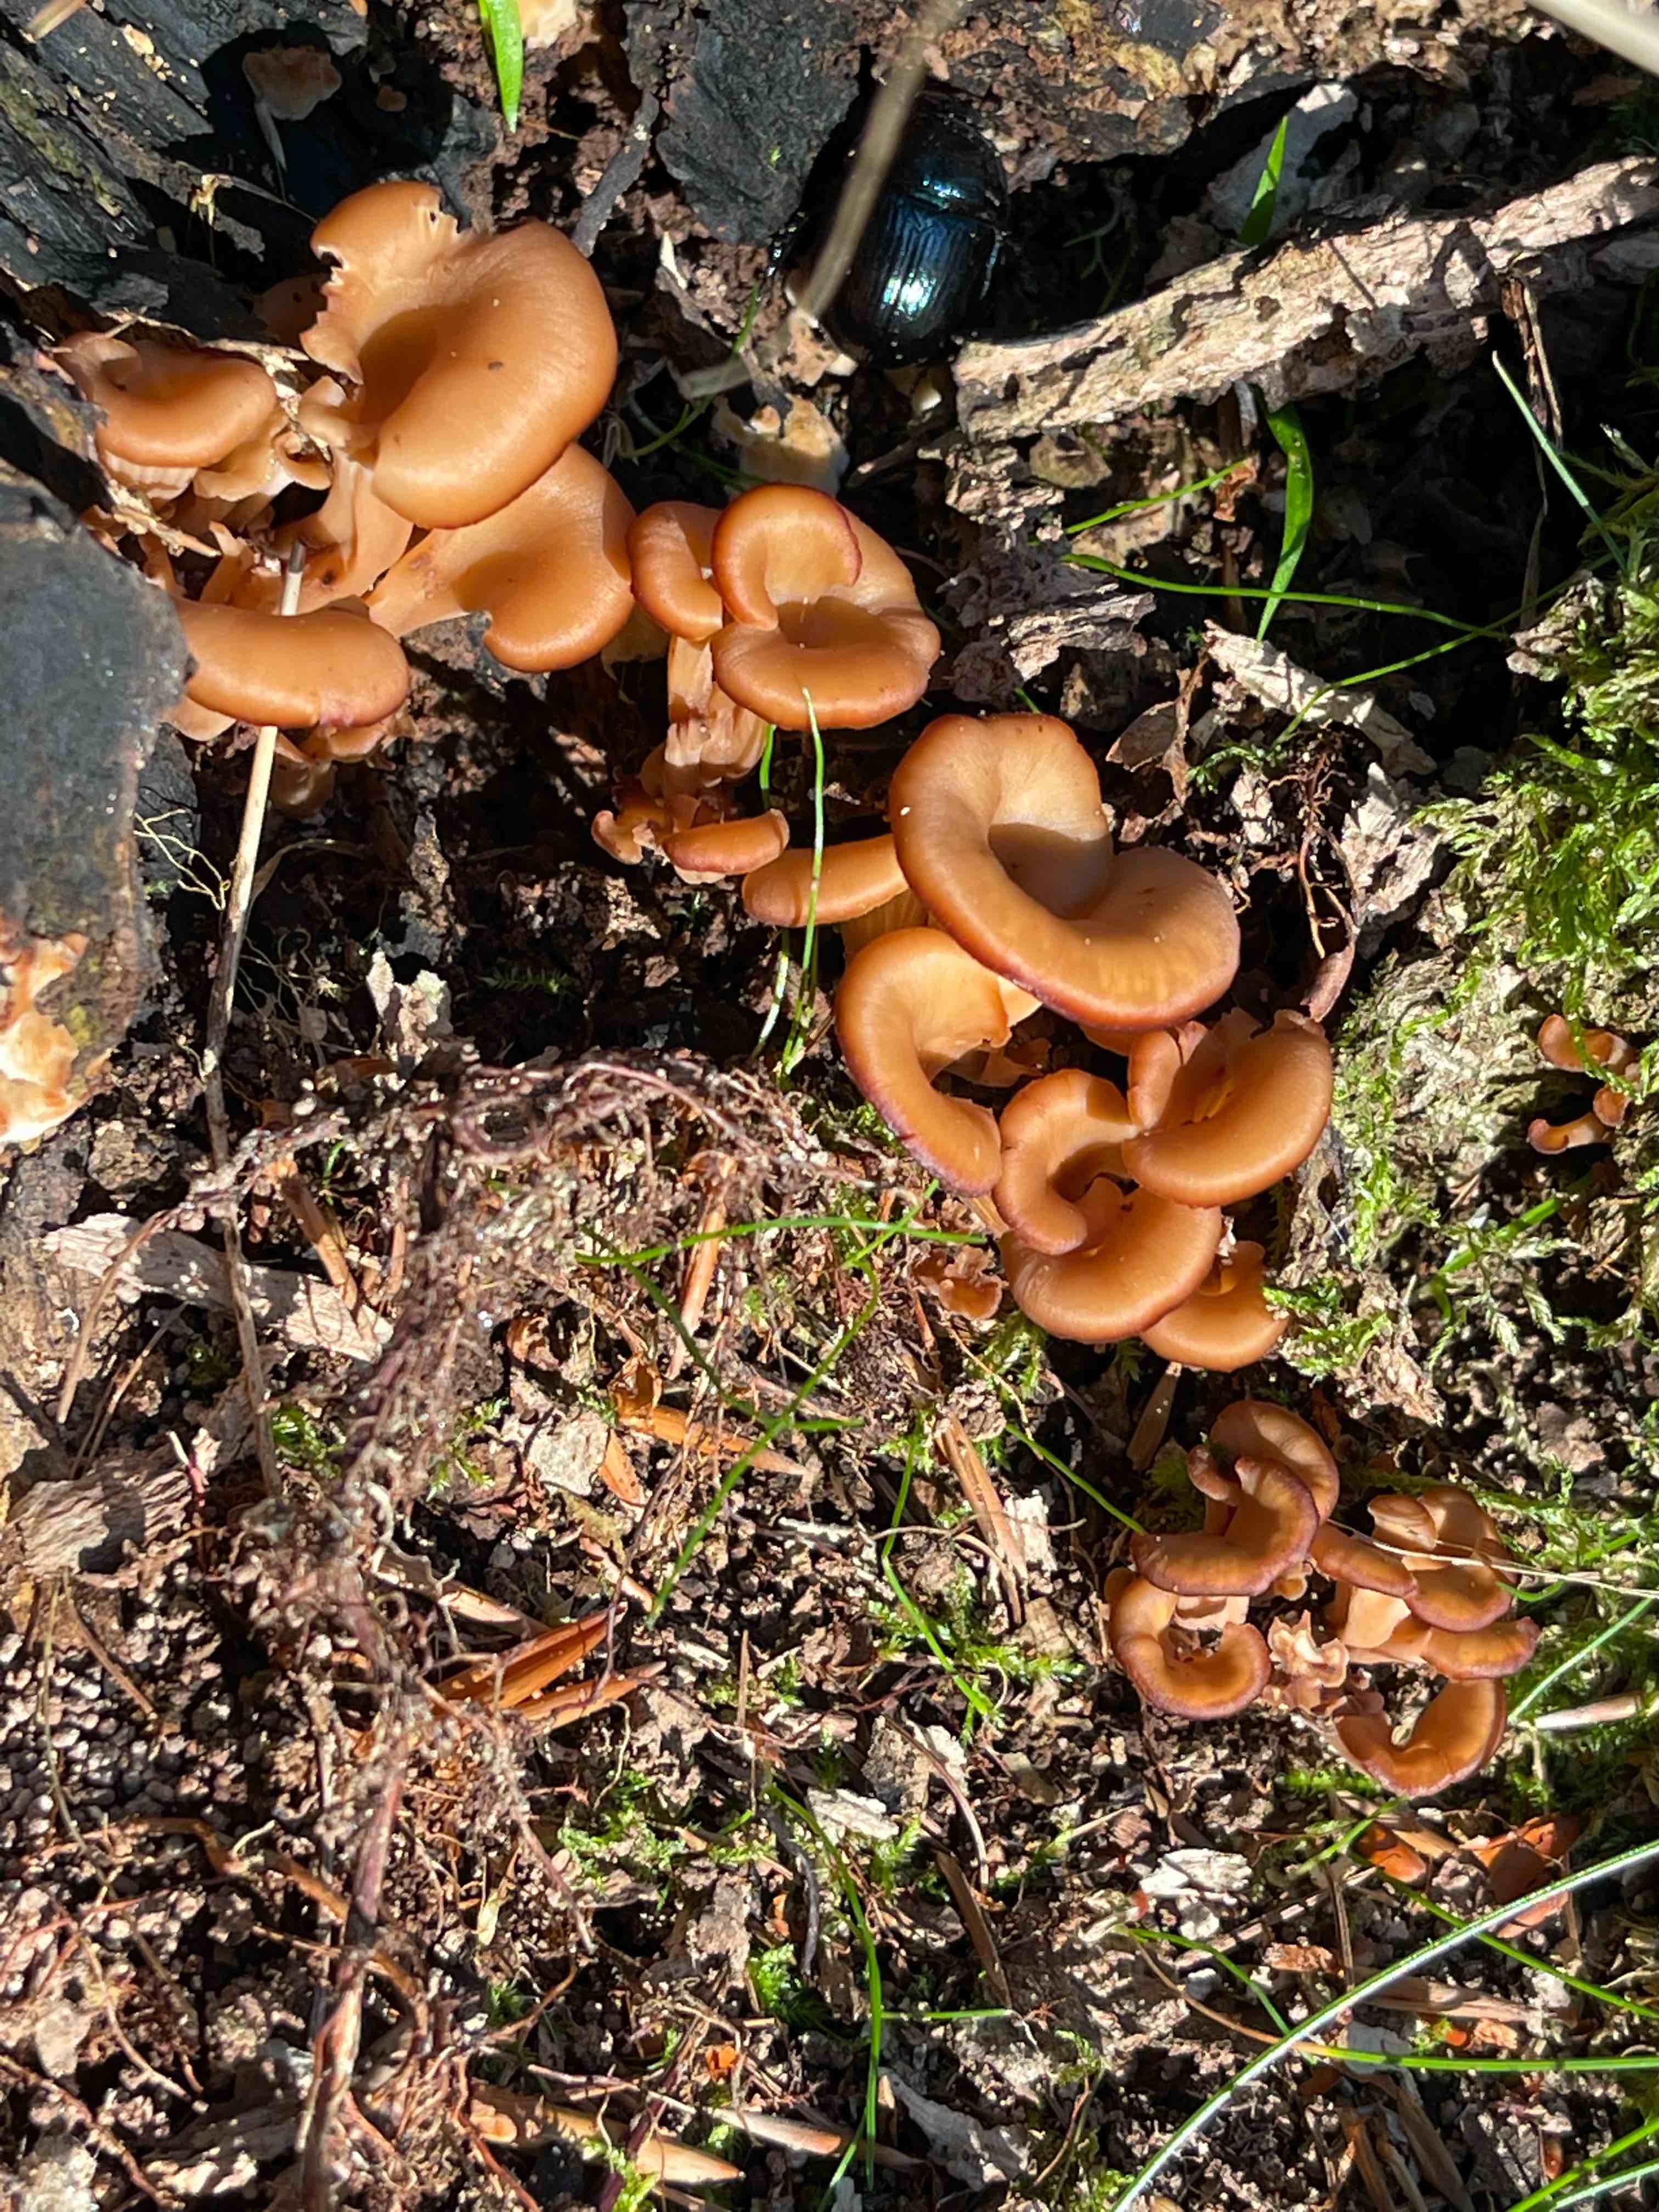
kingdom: Fungi
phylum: Basidiomycota
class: Agaricomycetes
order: Russulales
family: Auriscalpiaceae
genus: Lentinellus
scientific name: Lentinellus cochleatus
